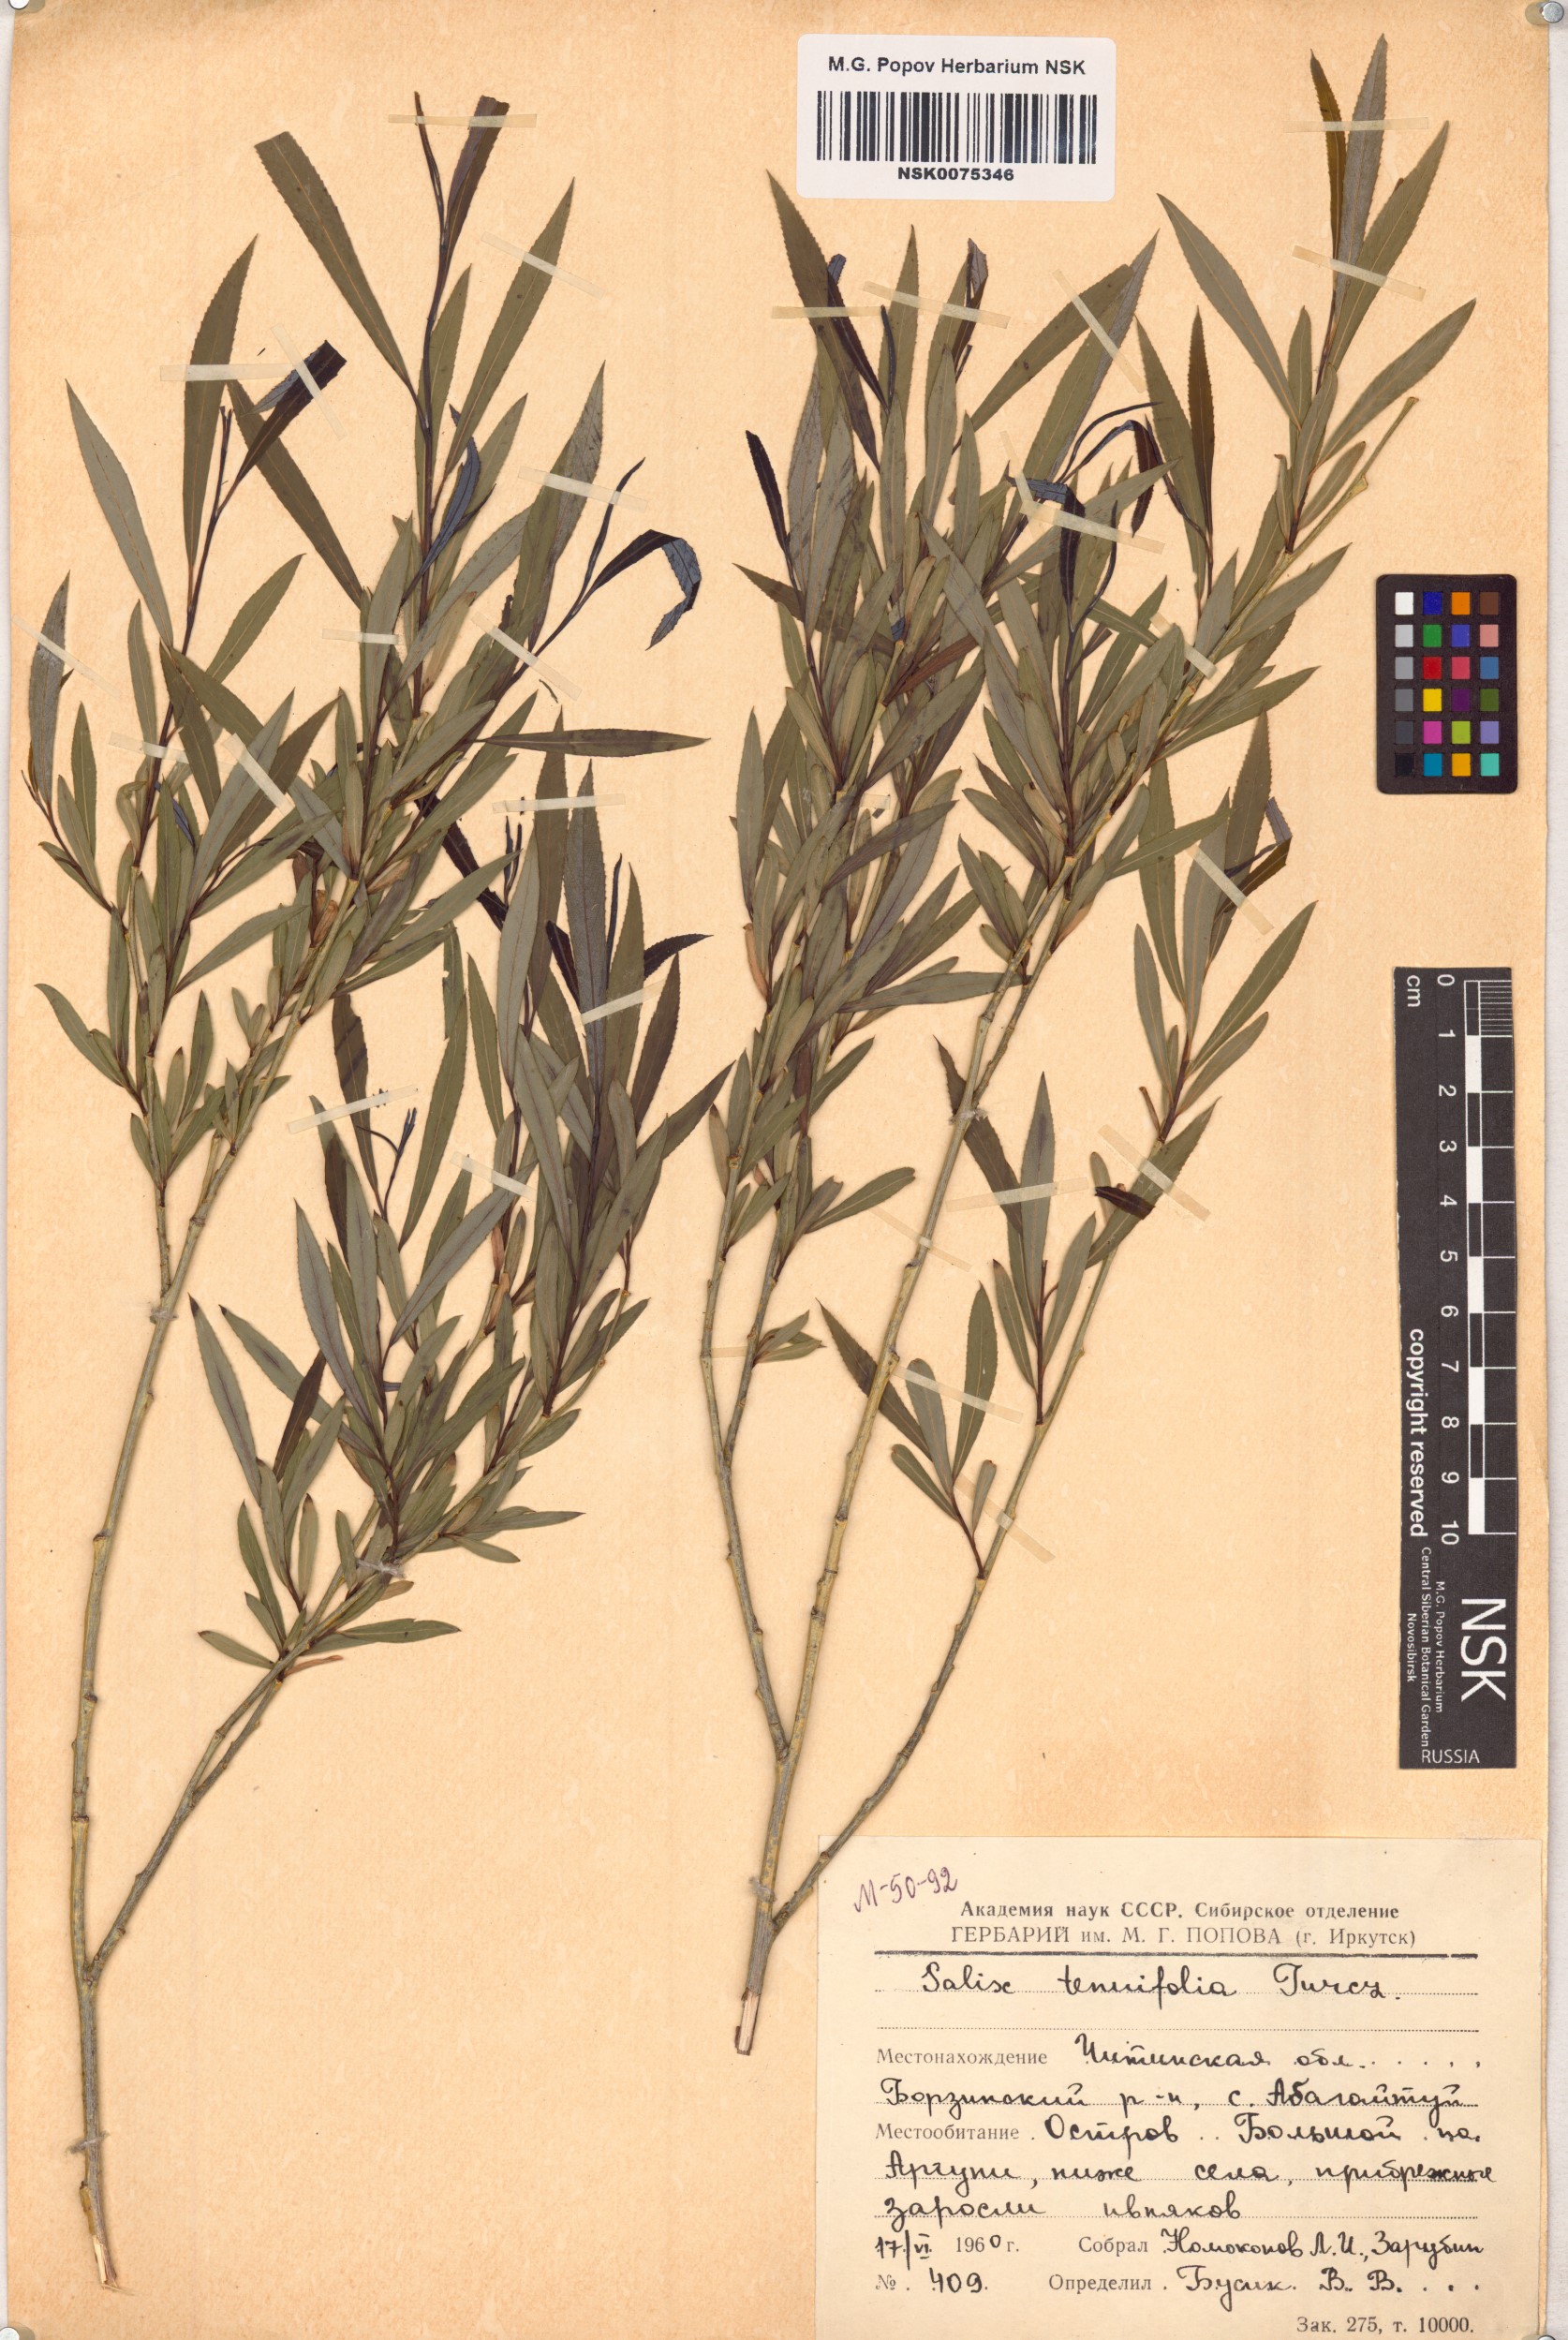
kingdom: Plantae
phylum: Tracheophyta
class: Magnoliopsida
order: Malpighiales
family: Salicaceae
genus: Salix
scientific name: Salix
